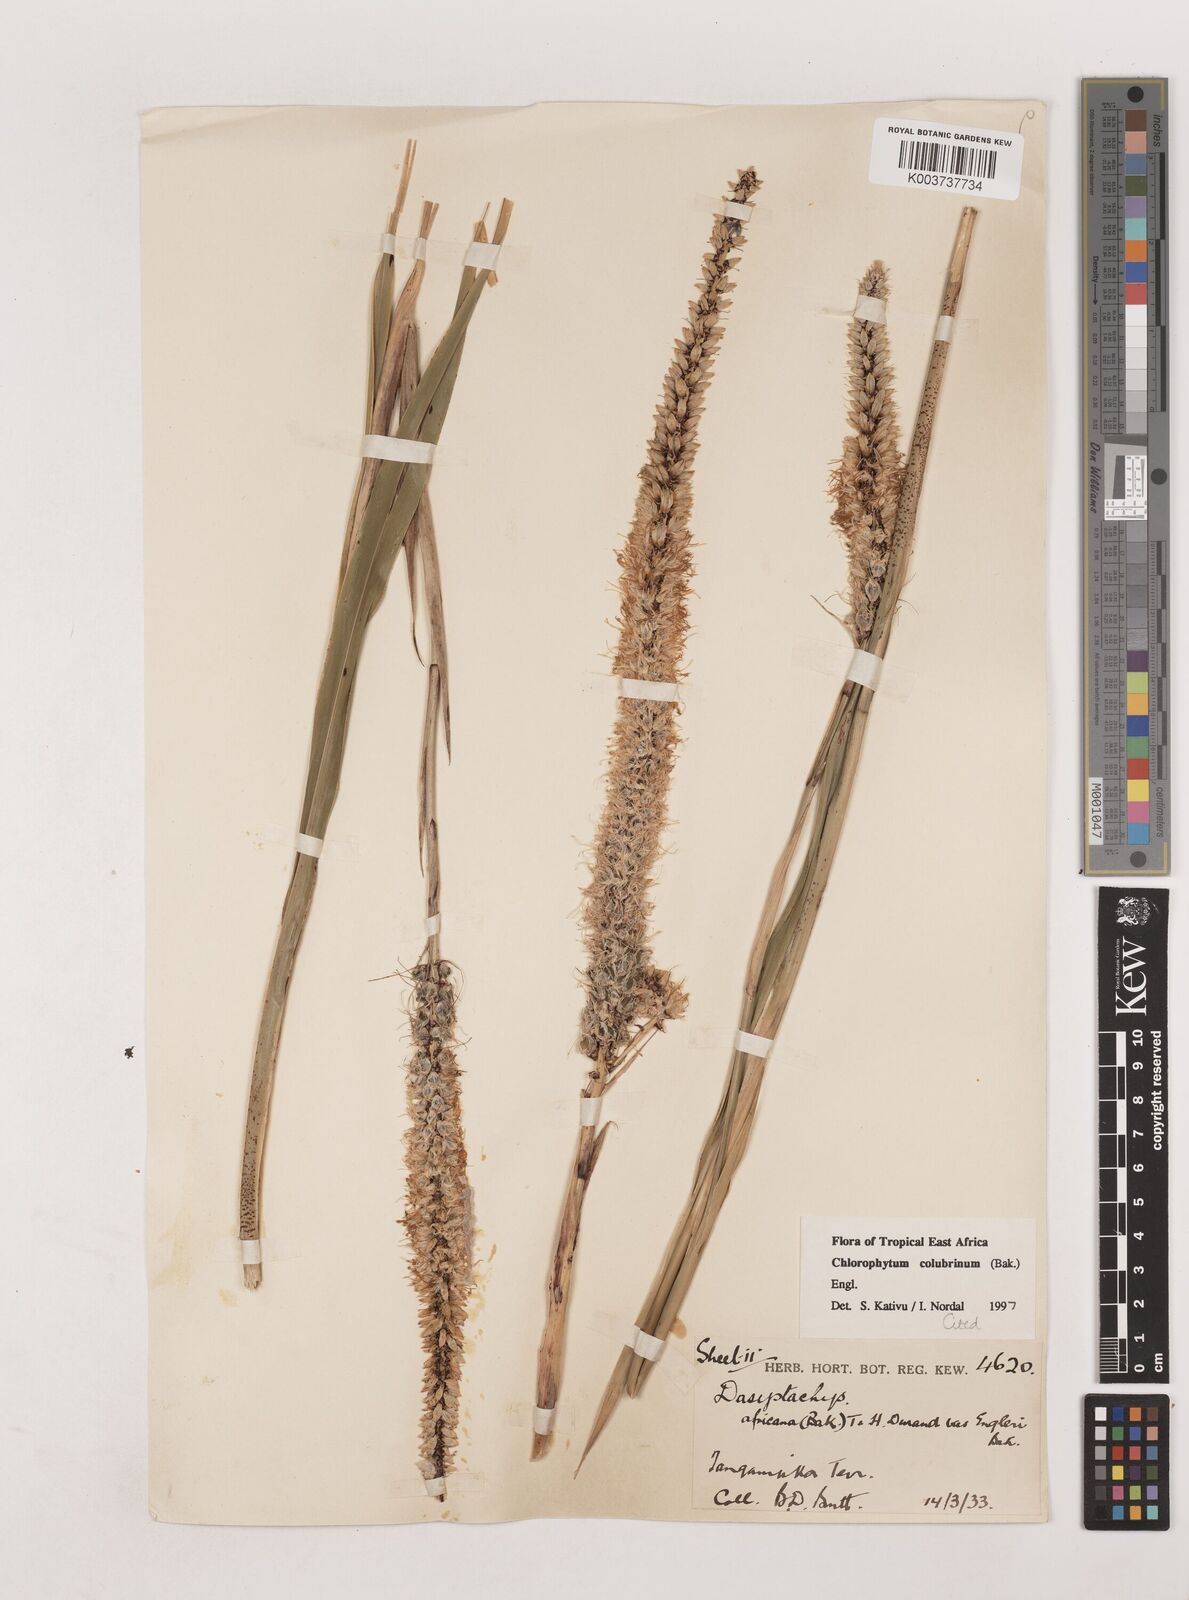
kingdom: Plantae
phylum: Tracheophyta
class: Liliopsida
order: Asparagales
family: Asparagaceae
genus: Chlorophytum
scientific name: Chlorophytum colubrinum
